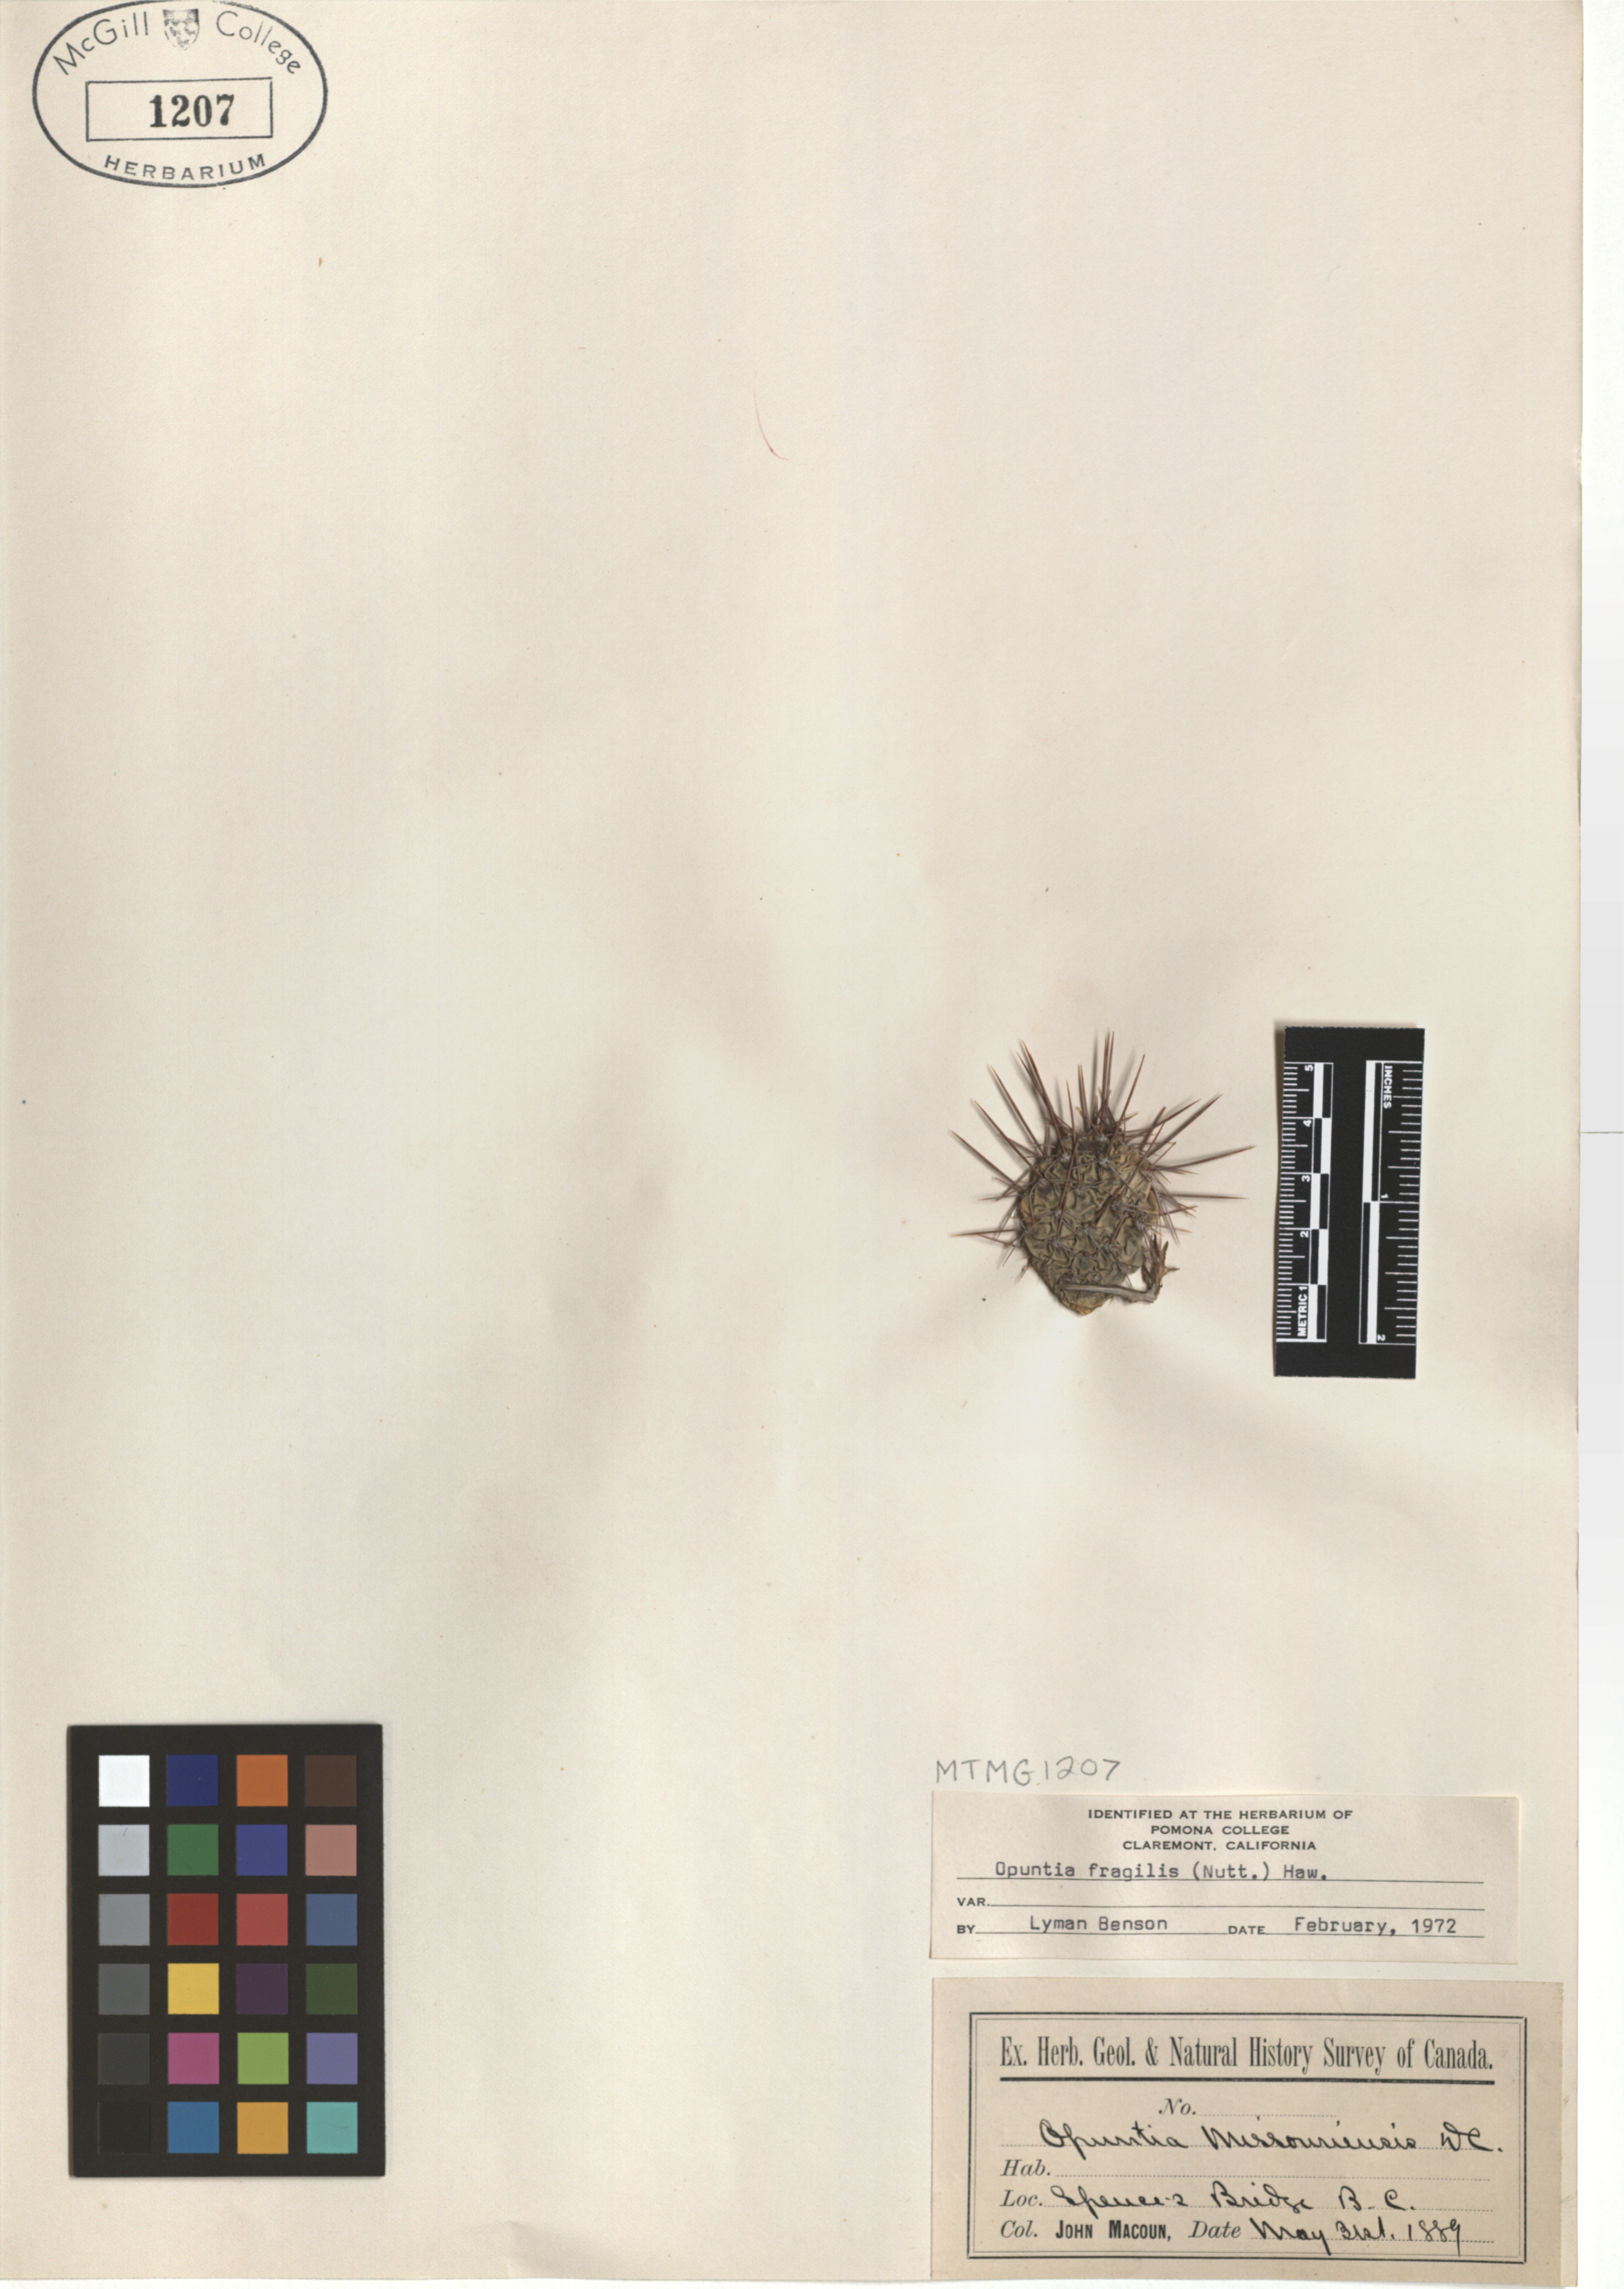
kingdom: Plantae
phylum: Tracheophyta
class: Magnoliopsida
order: Caryophyllales
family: Cactaceae
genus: Opuntia
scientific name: Opuntia fragilis
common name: Brittle cactus
